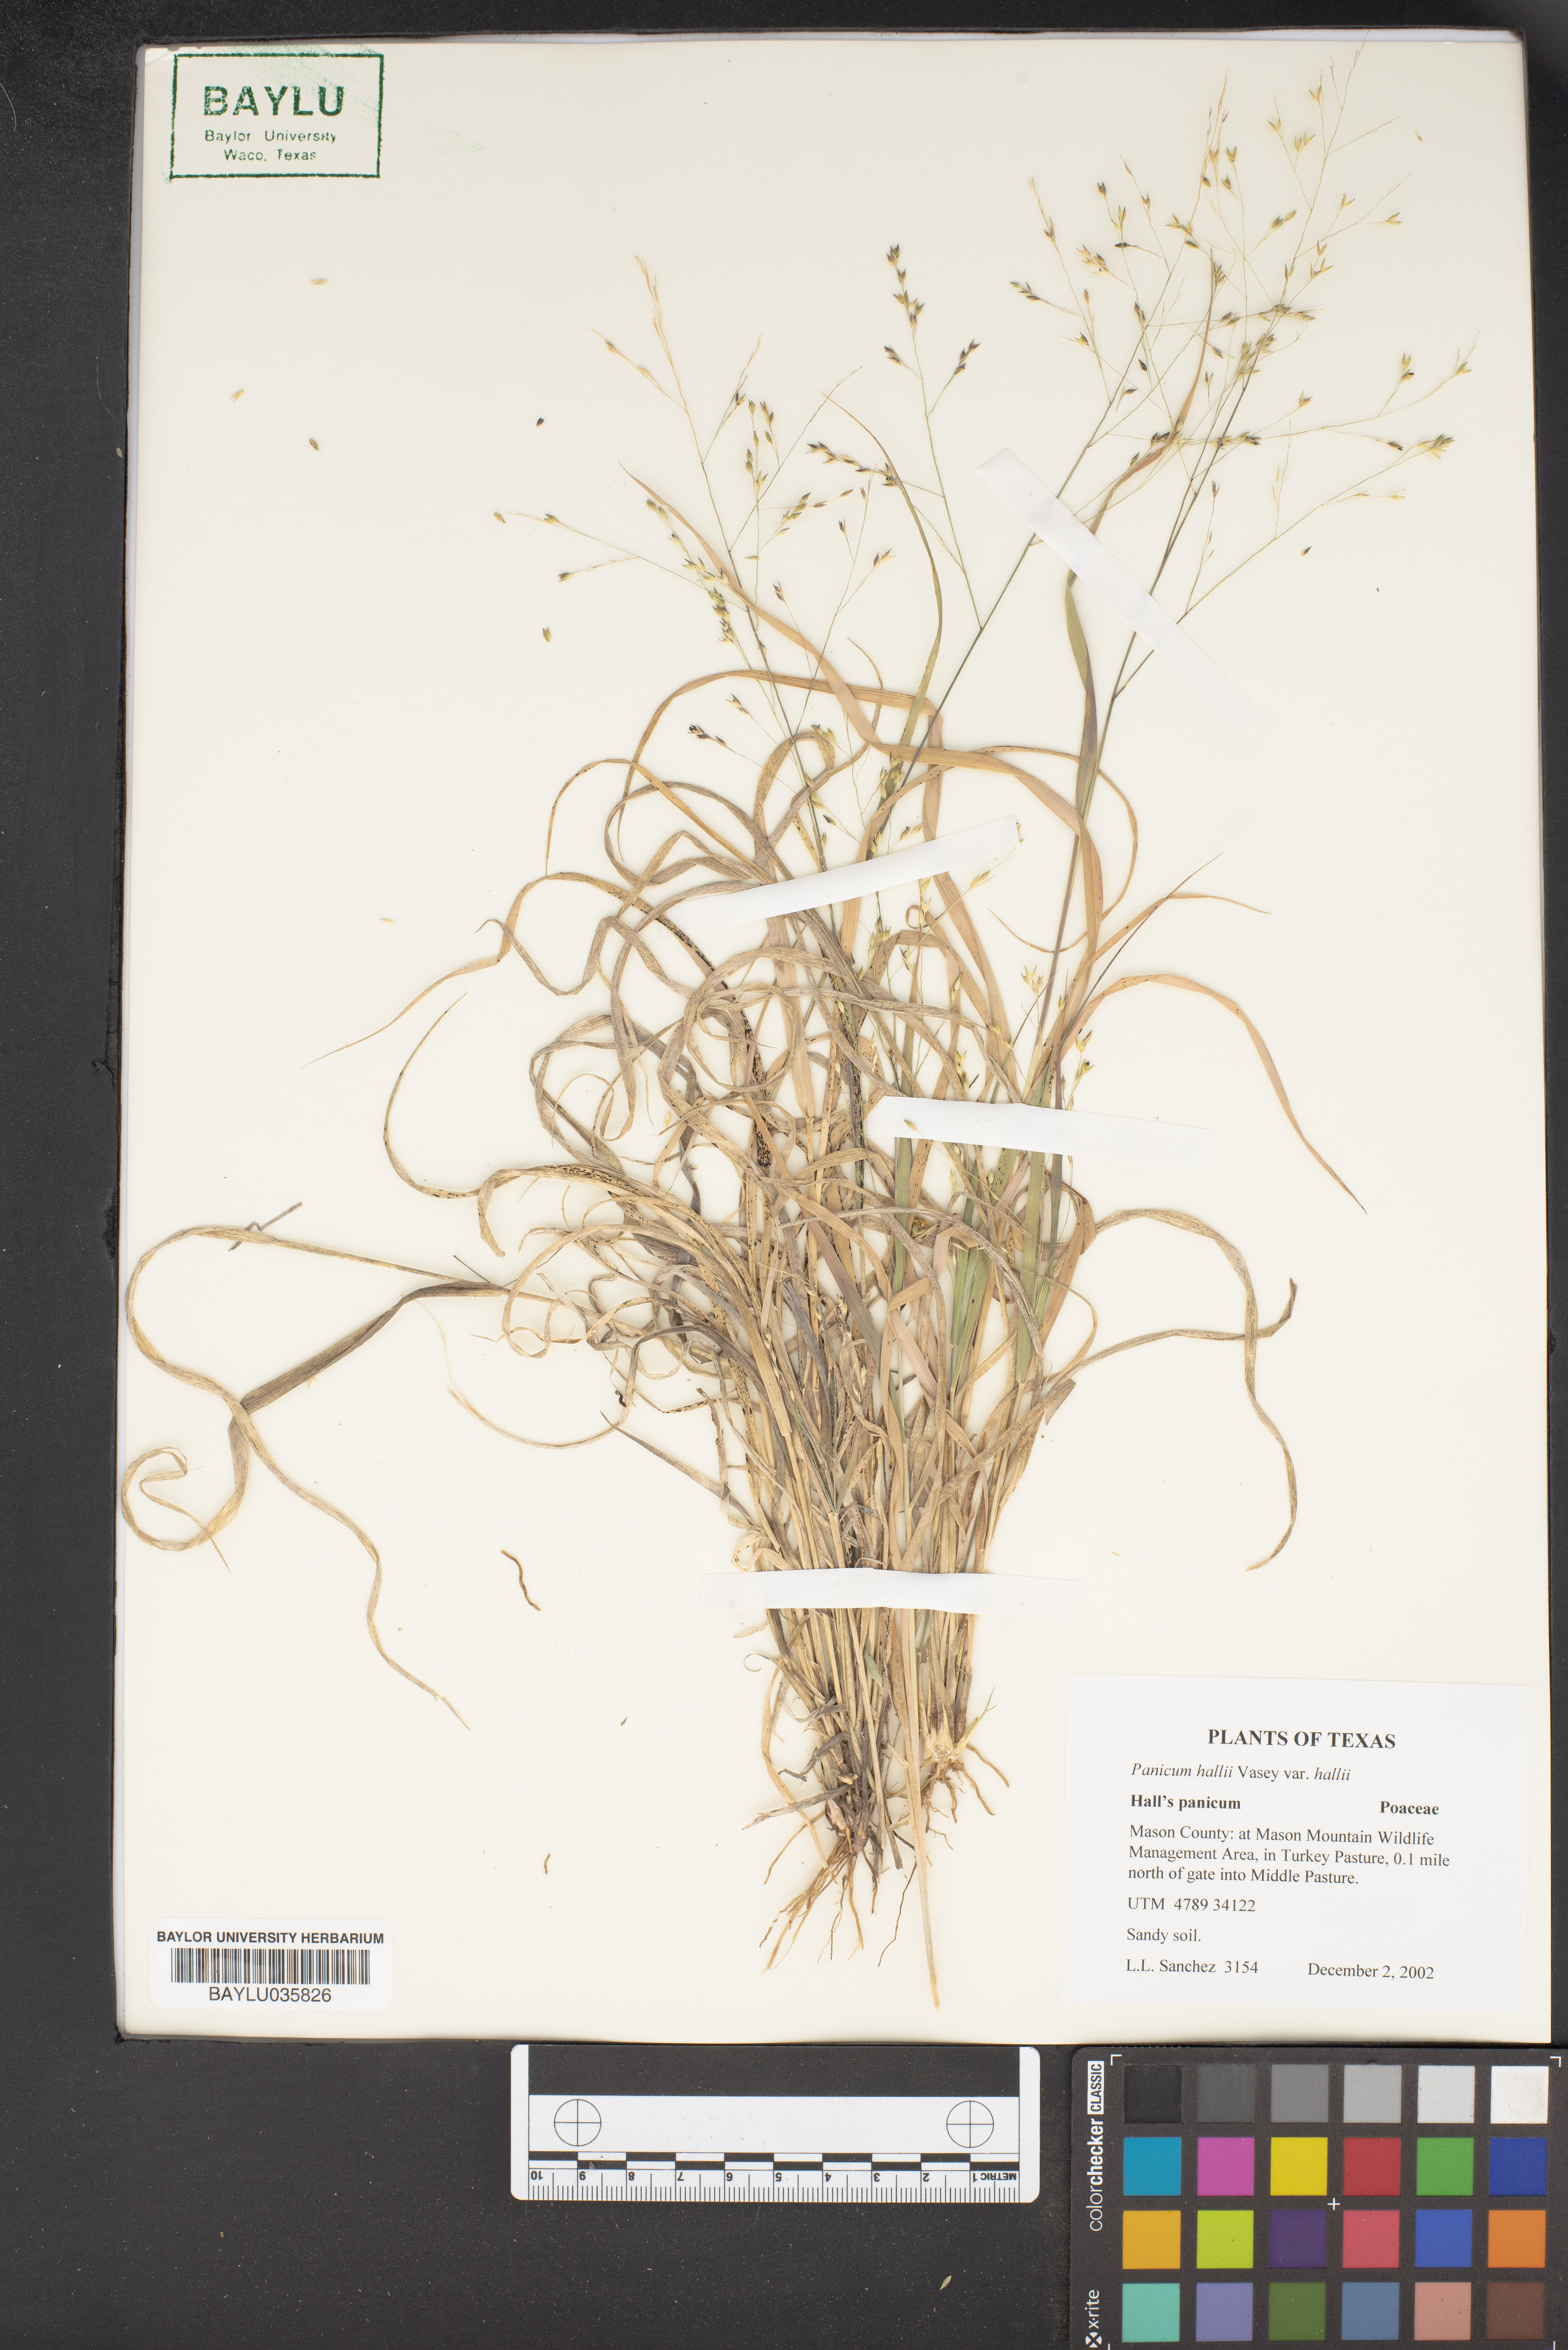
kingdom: Plantae
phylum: Tracheophyta
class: Liliopsida
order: Poales
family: Poaceae
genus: Panicum
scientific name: Panicum hallii
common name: Hall's witchgrass
